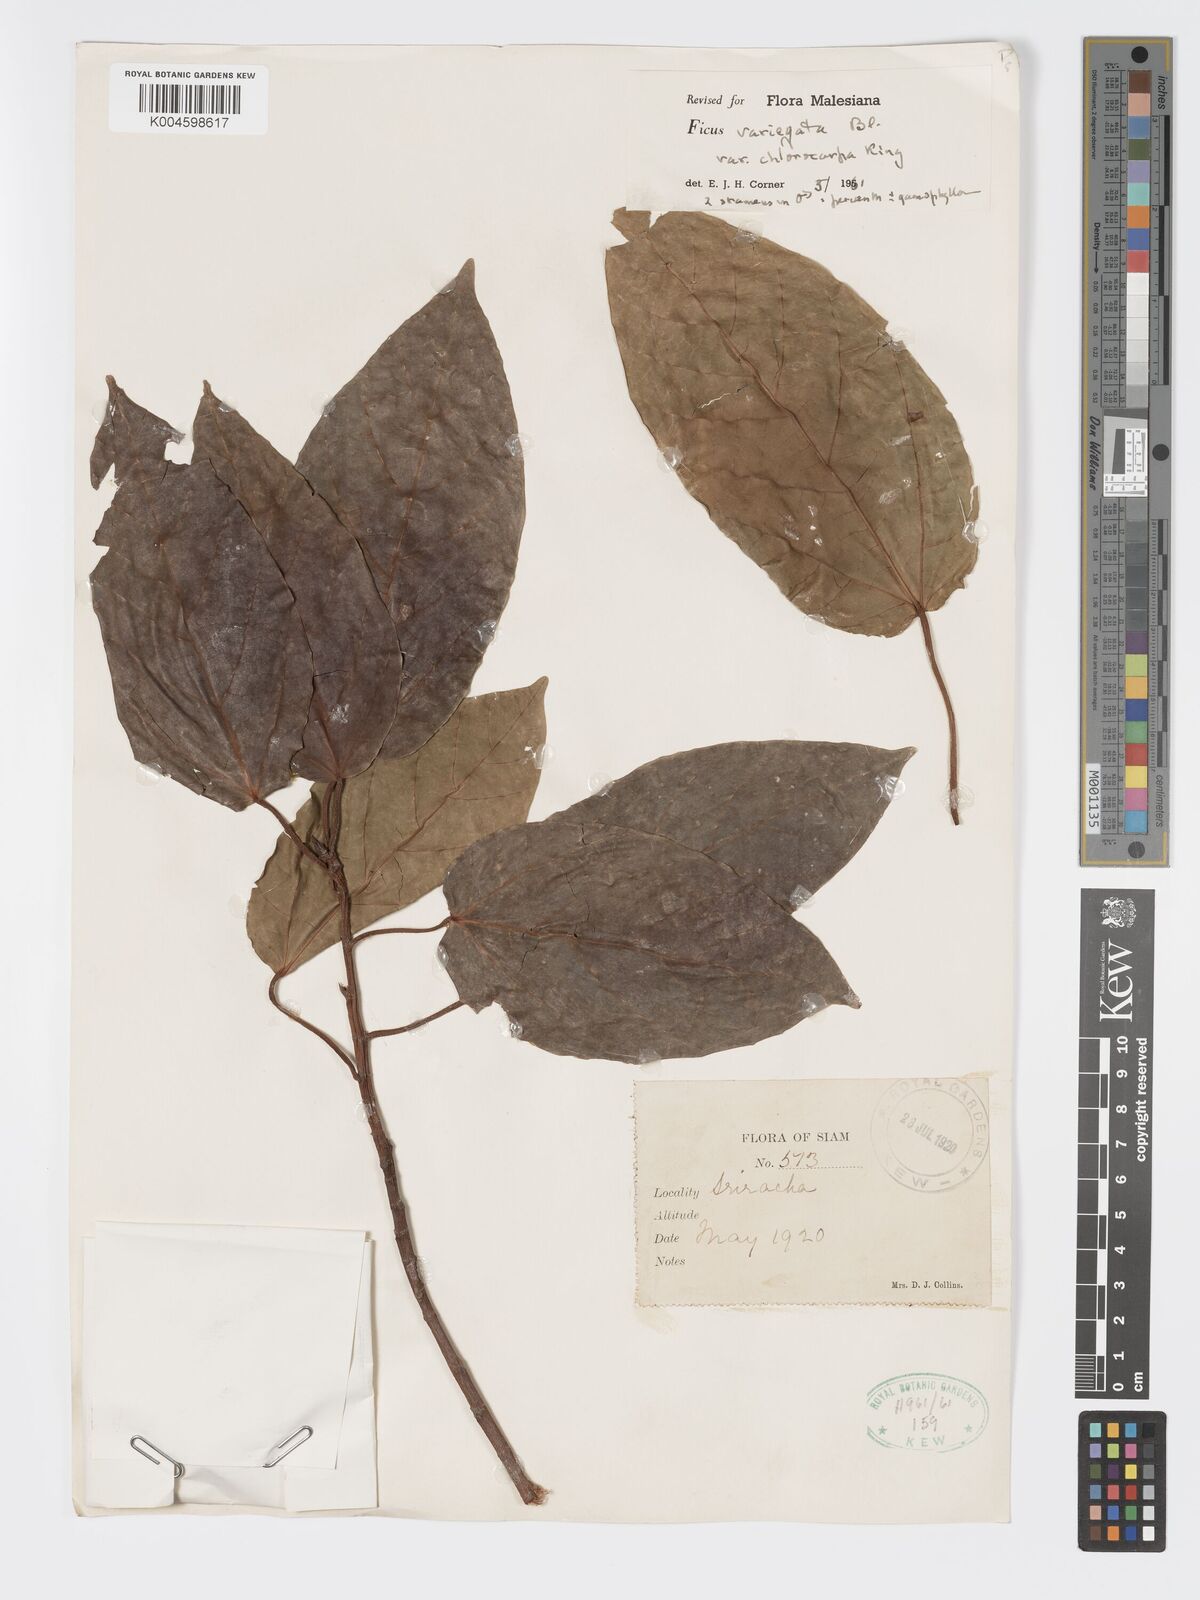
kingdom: Plantae
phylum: Tracheophyta
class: Magnoliopsida
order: Rosales
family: Moraceae
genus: Ficus
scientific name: Ficus variegata
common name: Variegated fig
